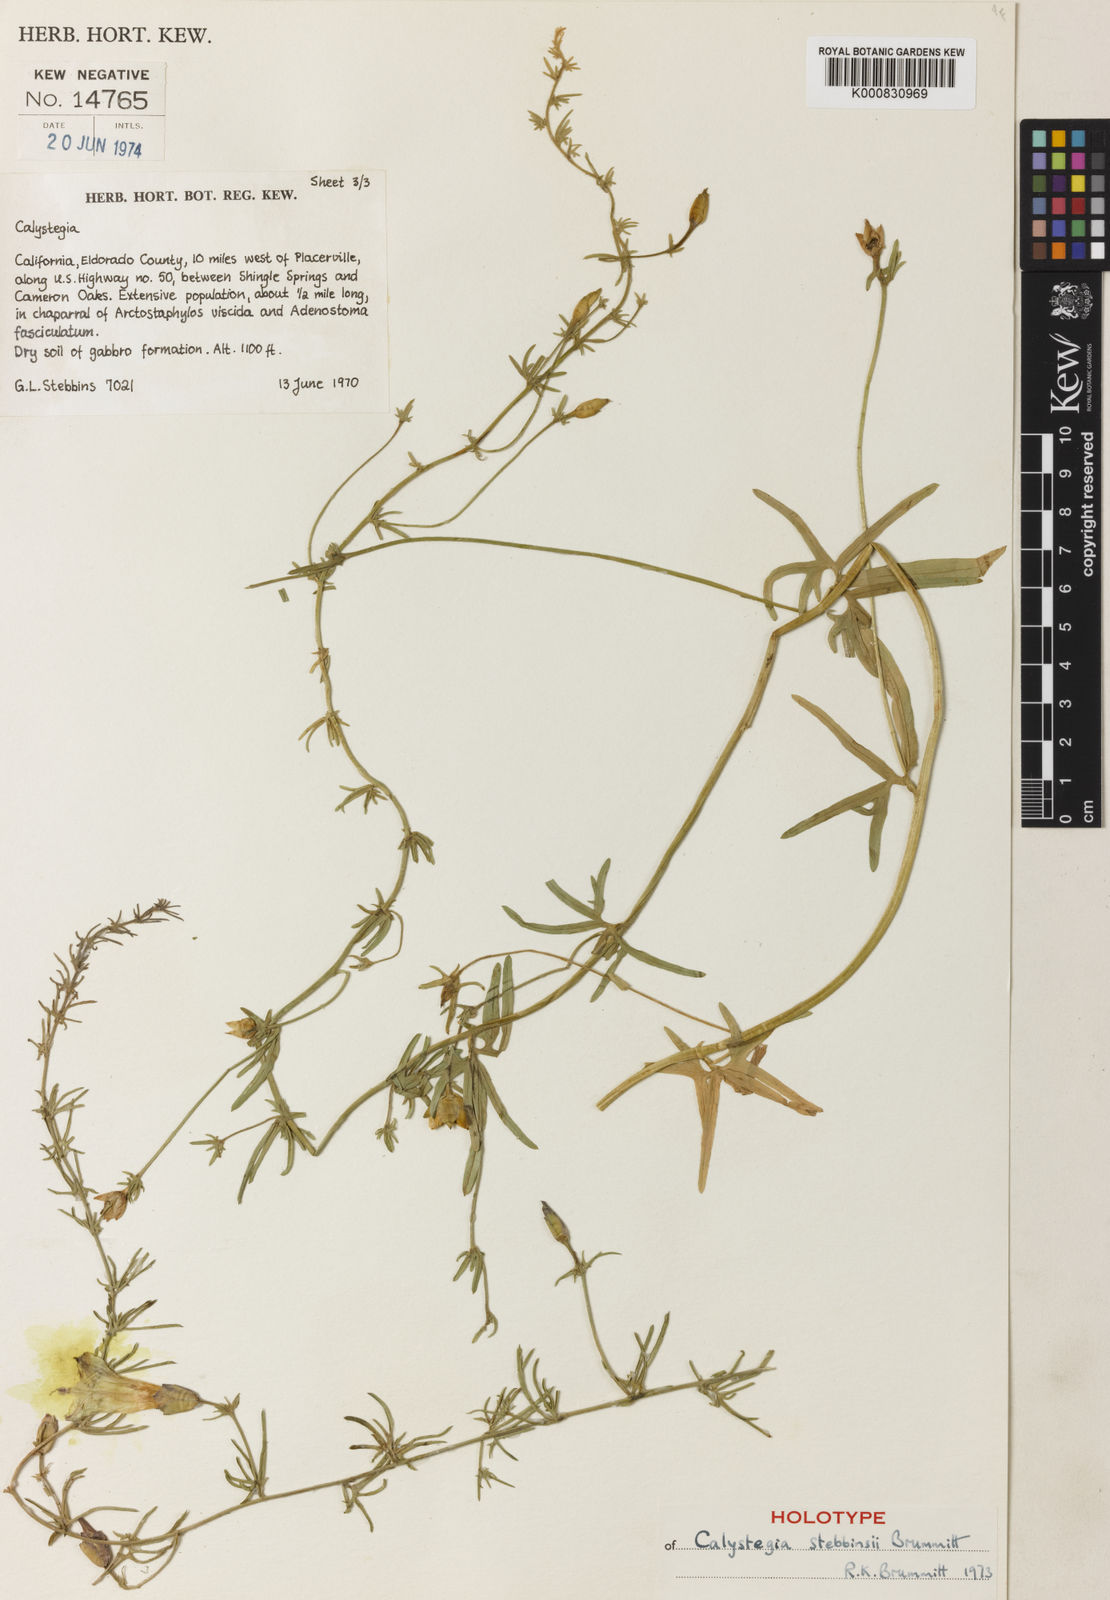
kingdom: Plantae
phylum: Tracheophyta
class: Magnoliopsida
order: Solanales
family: Convolvulaceae
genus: Calystegia
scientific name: Calystegia stebbinsii
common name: Stebbins's-morning-glory
